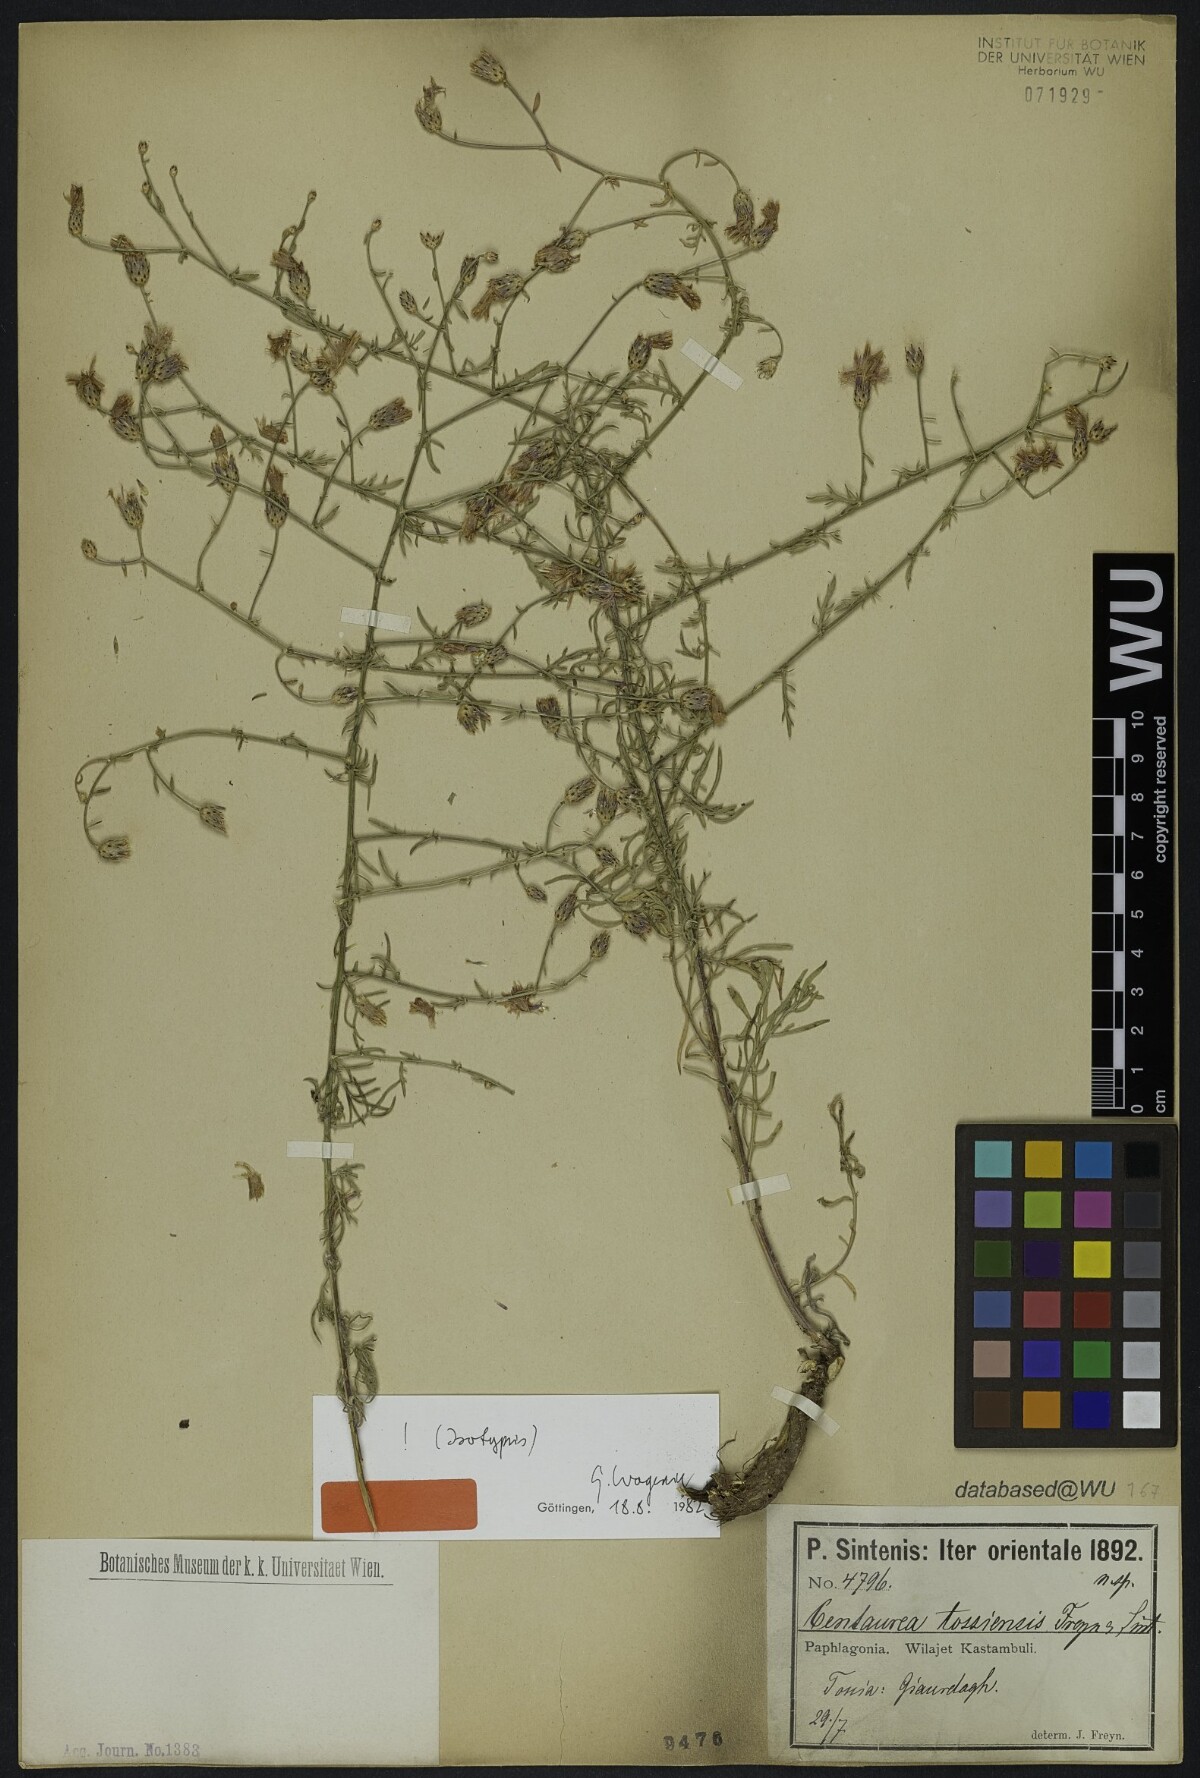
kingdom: Plantae
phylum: Tracheophyta
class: Magnoliopsida
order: Asterales
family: Asteraceae
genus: Centaurea
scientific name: Centaurea tossiensis
